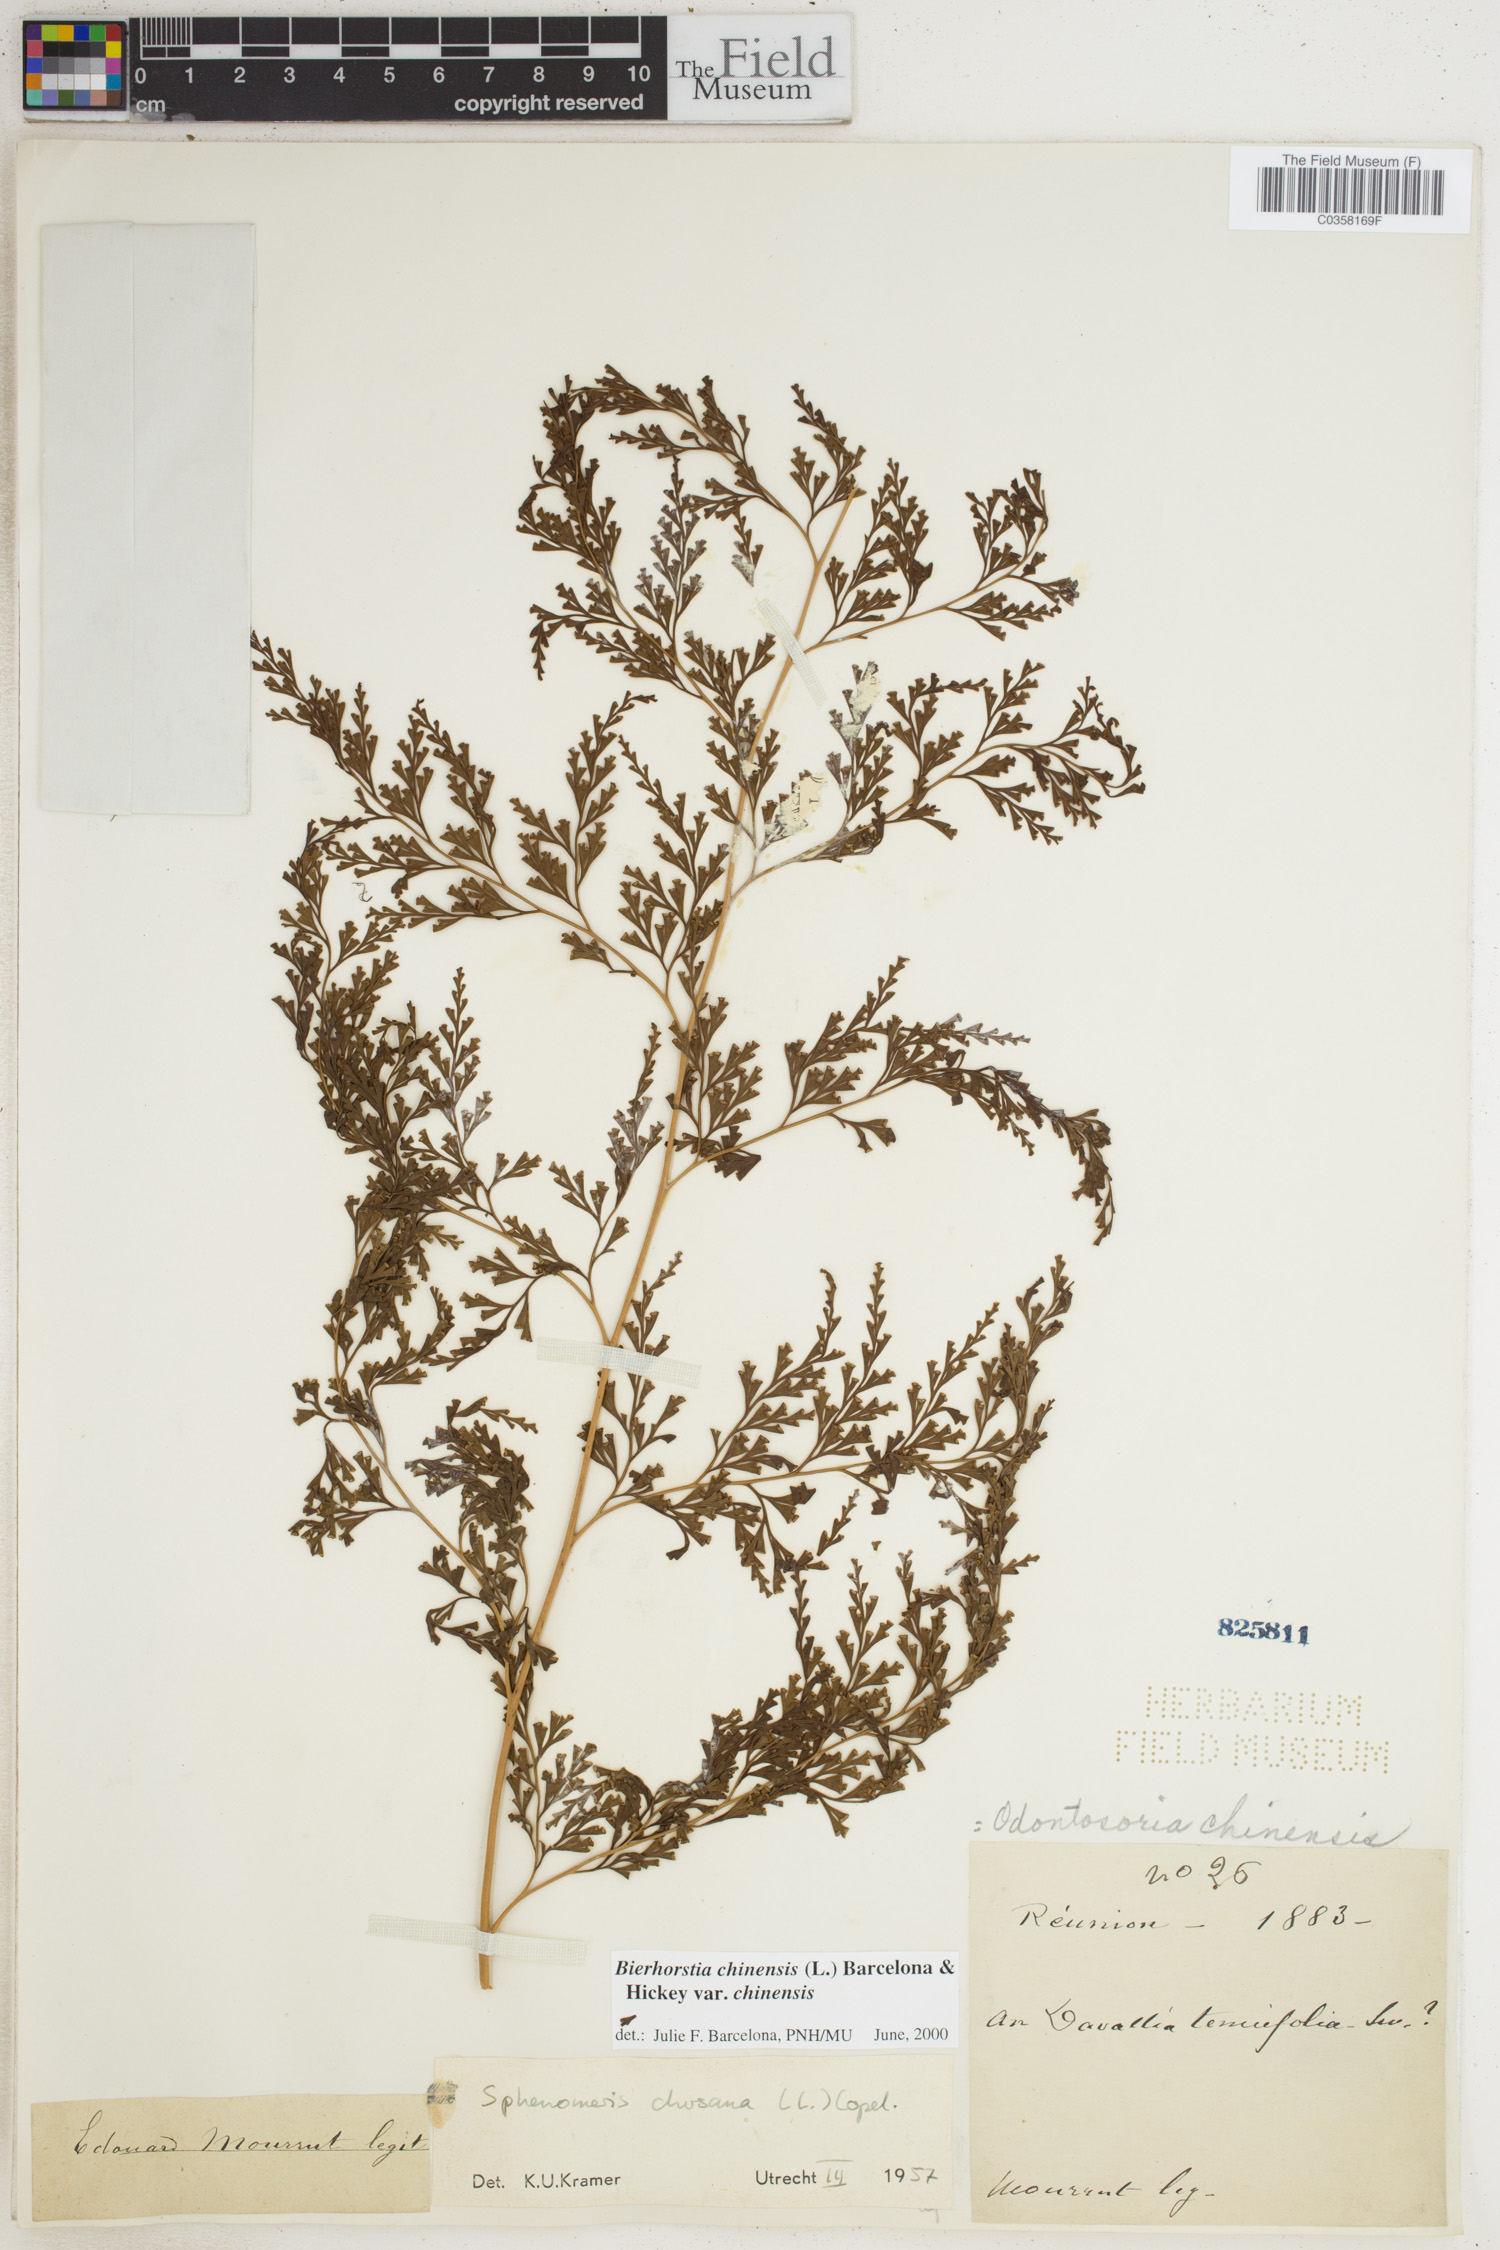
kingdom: Plantae
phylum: Tracheophyta
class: Polypodiopsida
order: Polypodiales
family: Lindsaeaceae
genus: Odontosoria
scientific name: Odontosoria chinensis
